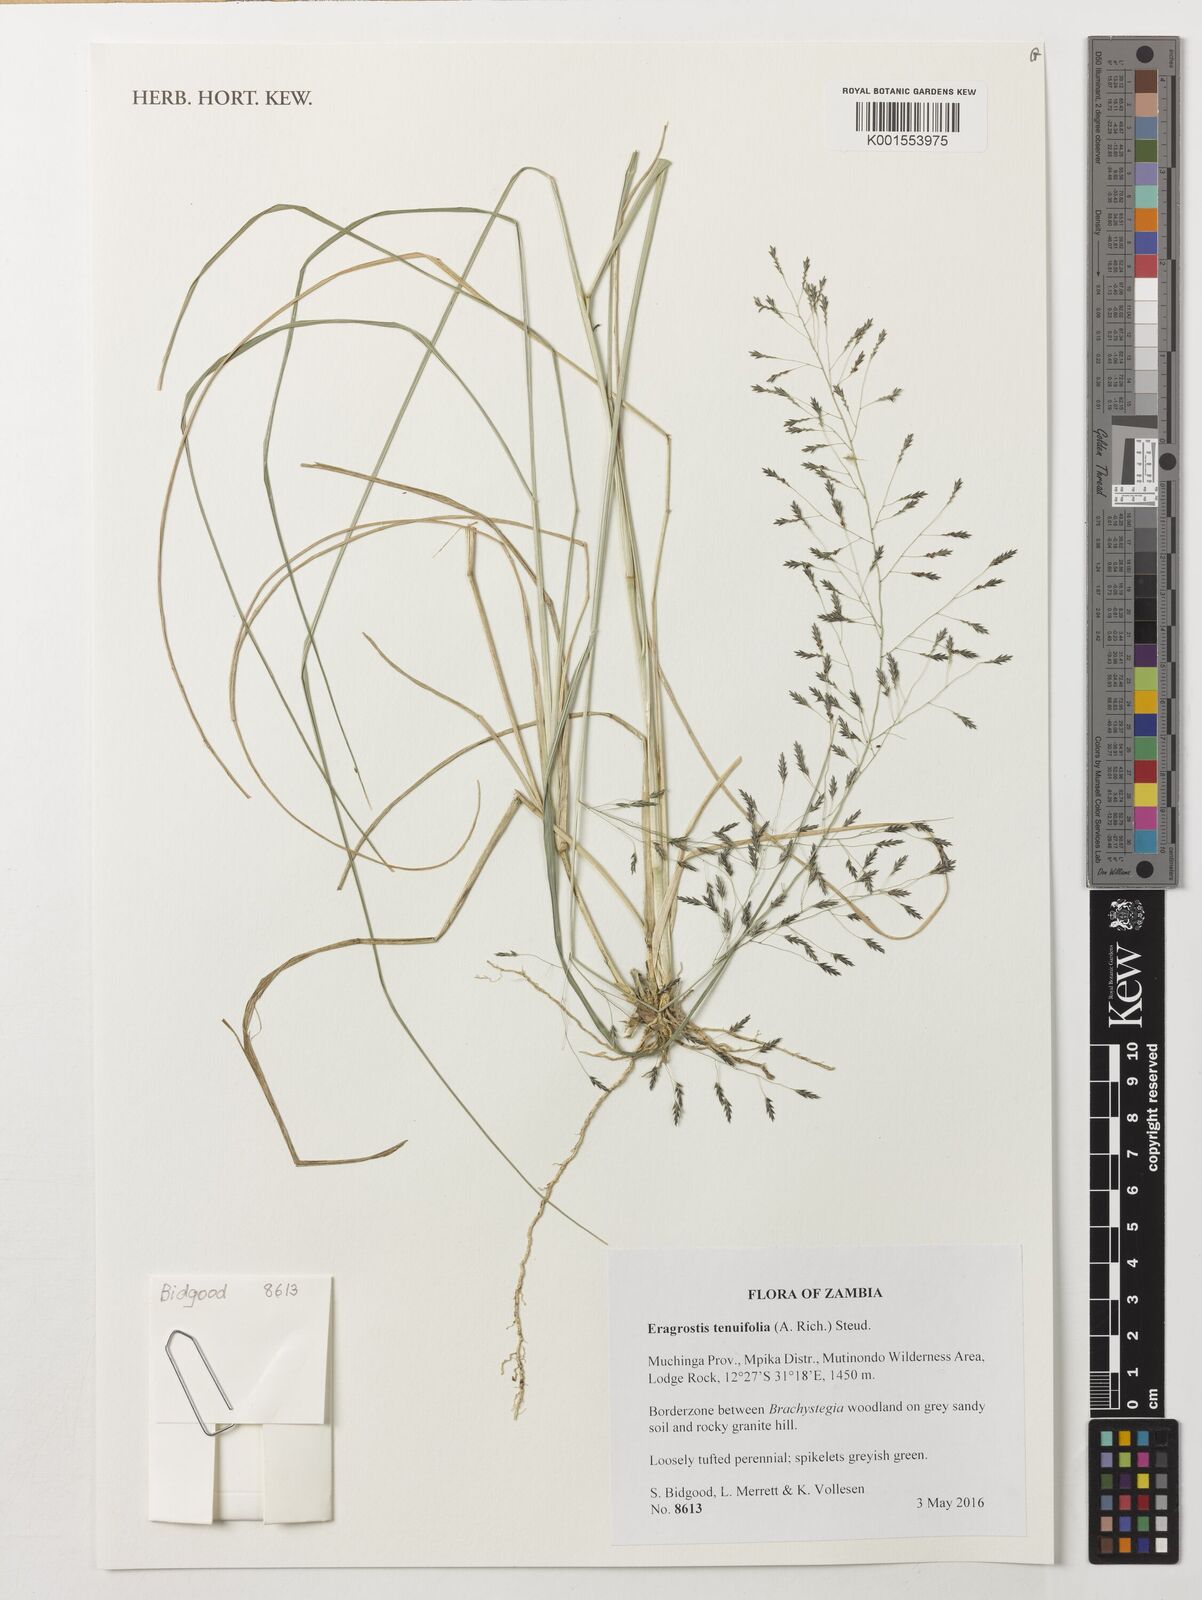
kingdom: Plantae
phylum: Tracheophyta
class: Liliopsida
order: Poales
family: Poaceae
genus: Eragrostis
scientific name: Eragrostis tenuifolia
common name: Elastic grass
